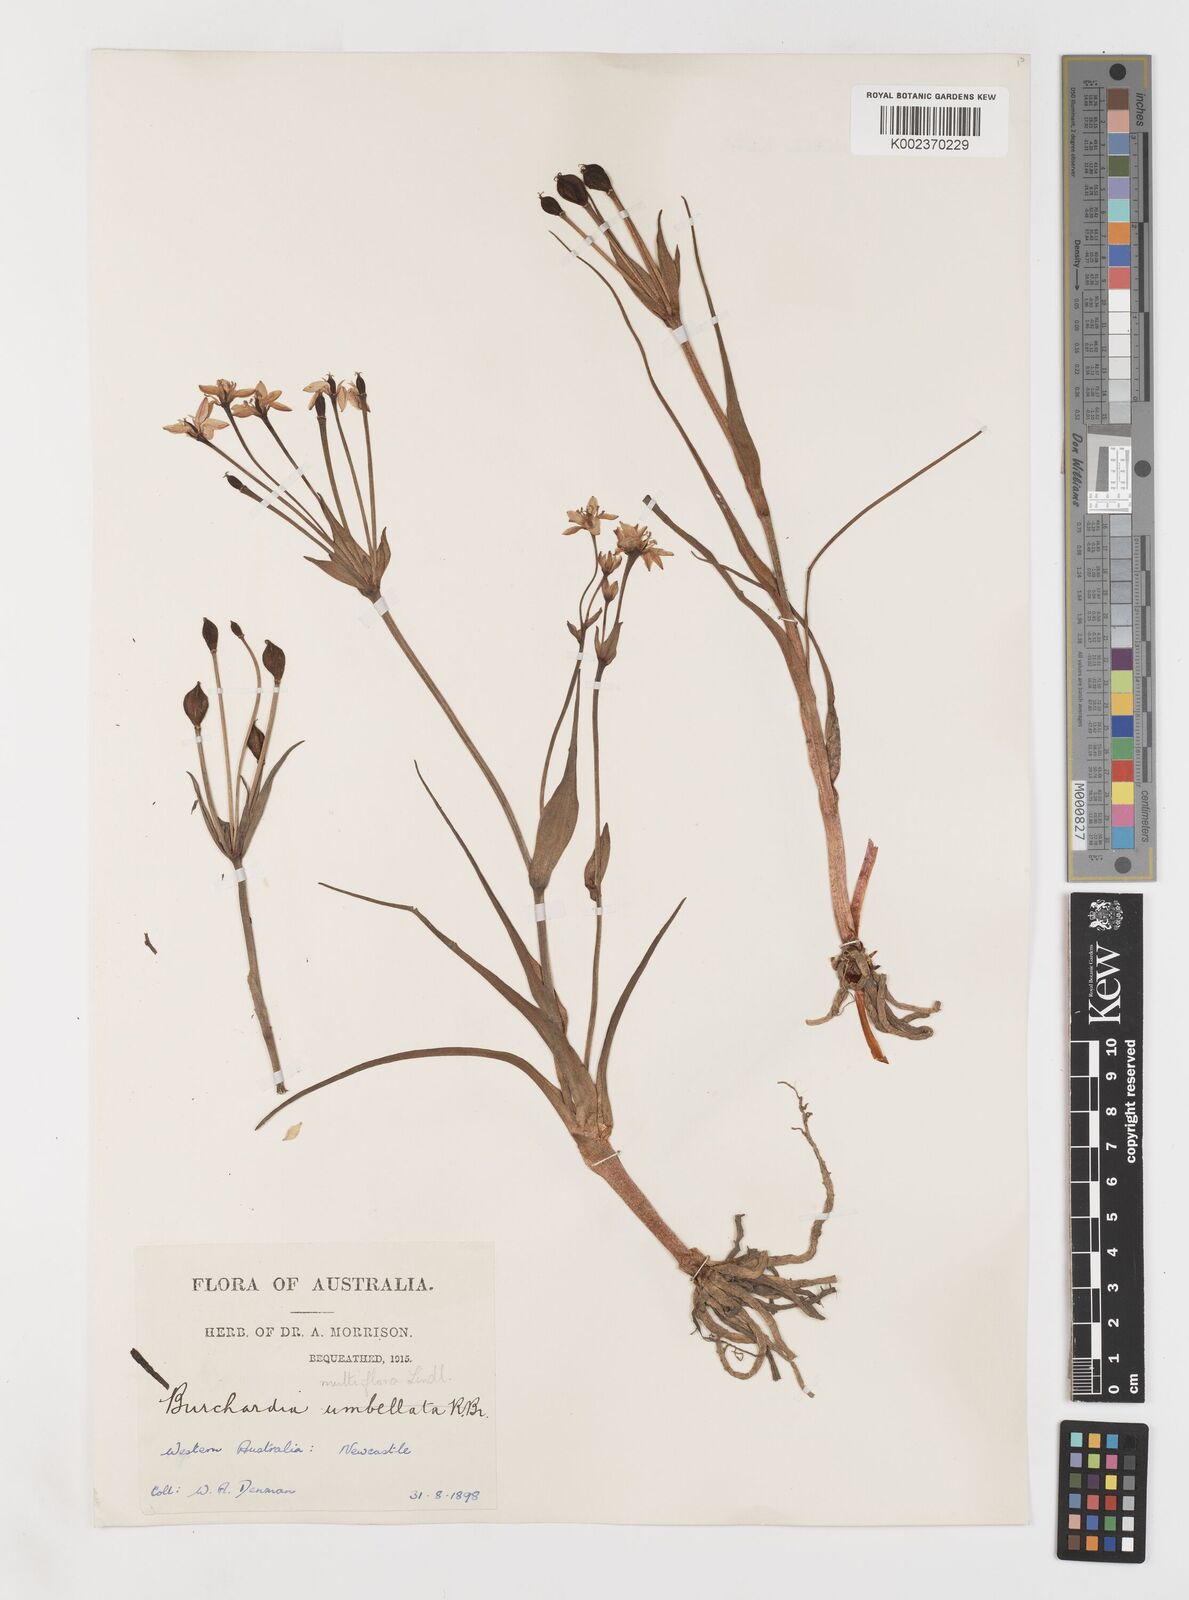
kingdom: Plantae
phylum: Tracheophyta
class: Liliopsida
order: Liliales
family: Colchicaceae
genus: Burchardia
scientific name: Burchardia multiflora
